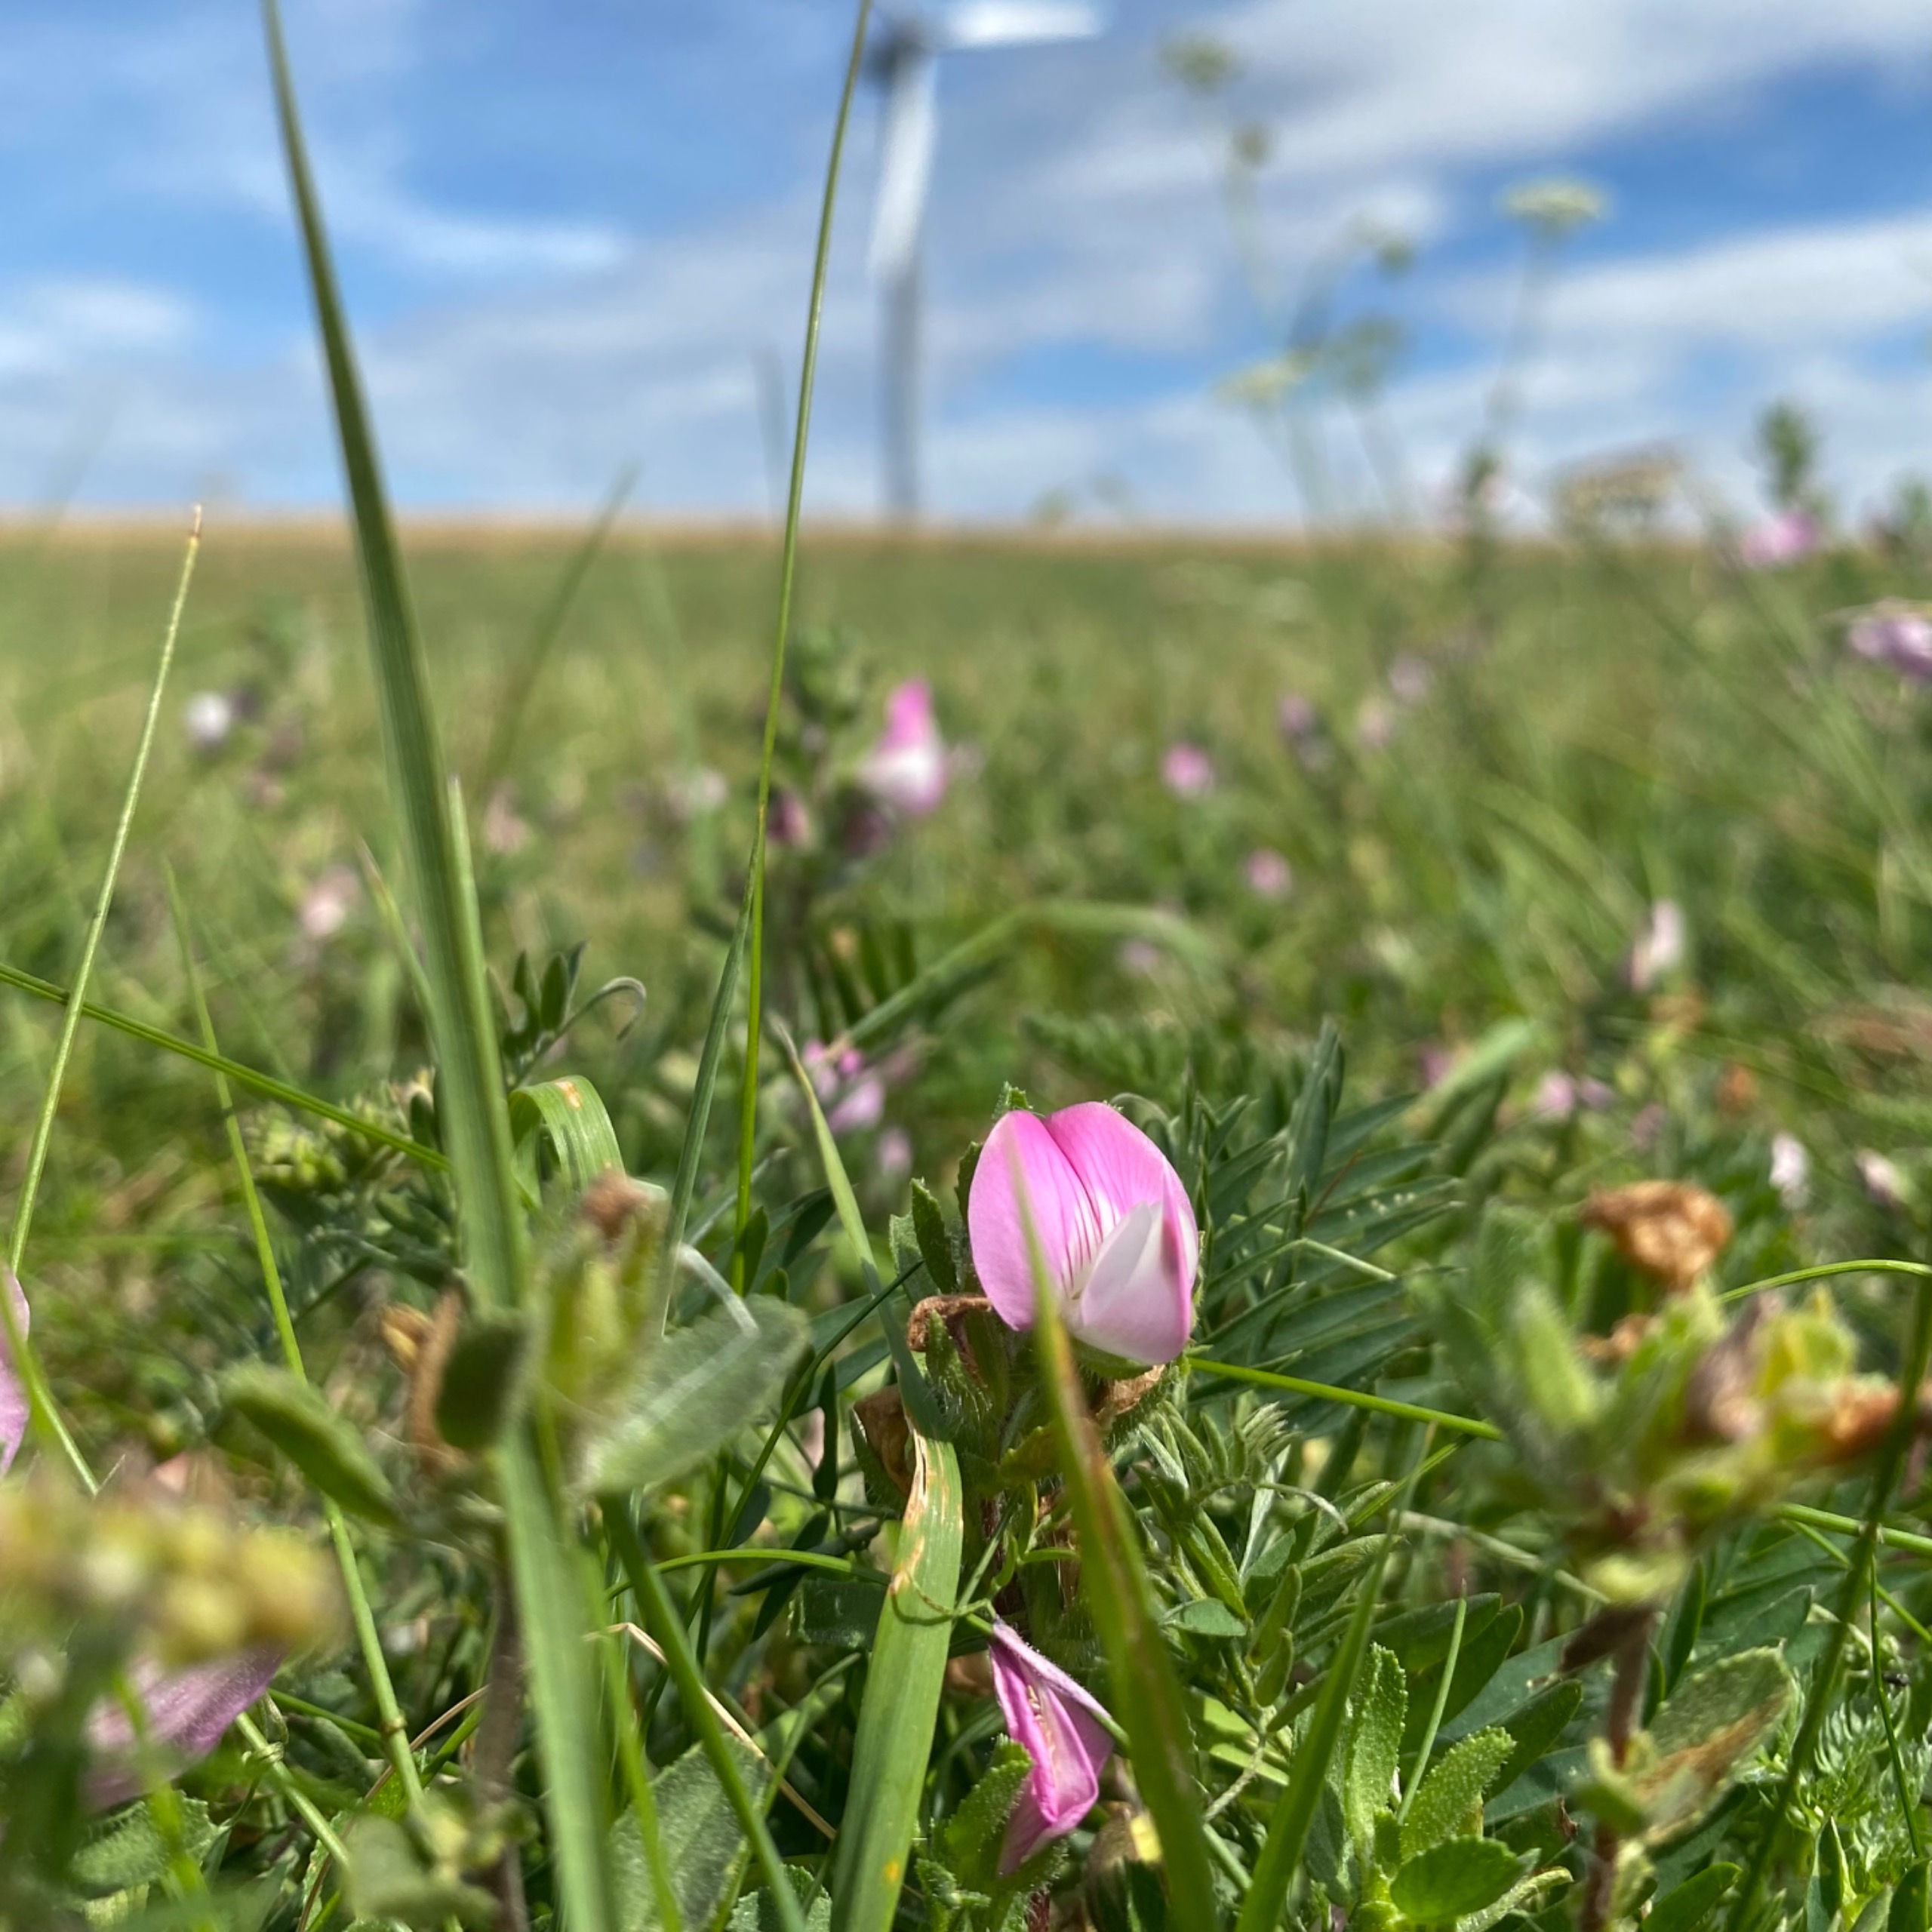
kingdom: Plantae
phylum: Tracheophyta
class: Magnoliopsida
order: Fabales
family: Fabaceae
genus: Ononis
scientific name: Ononis spinosa
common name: Mark-krageklo
